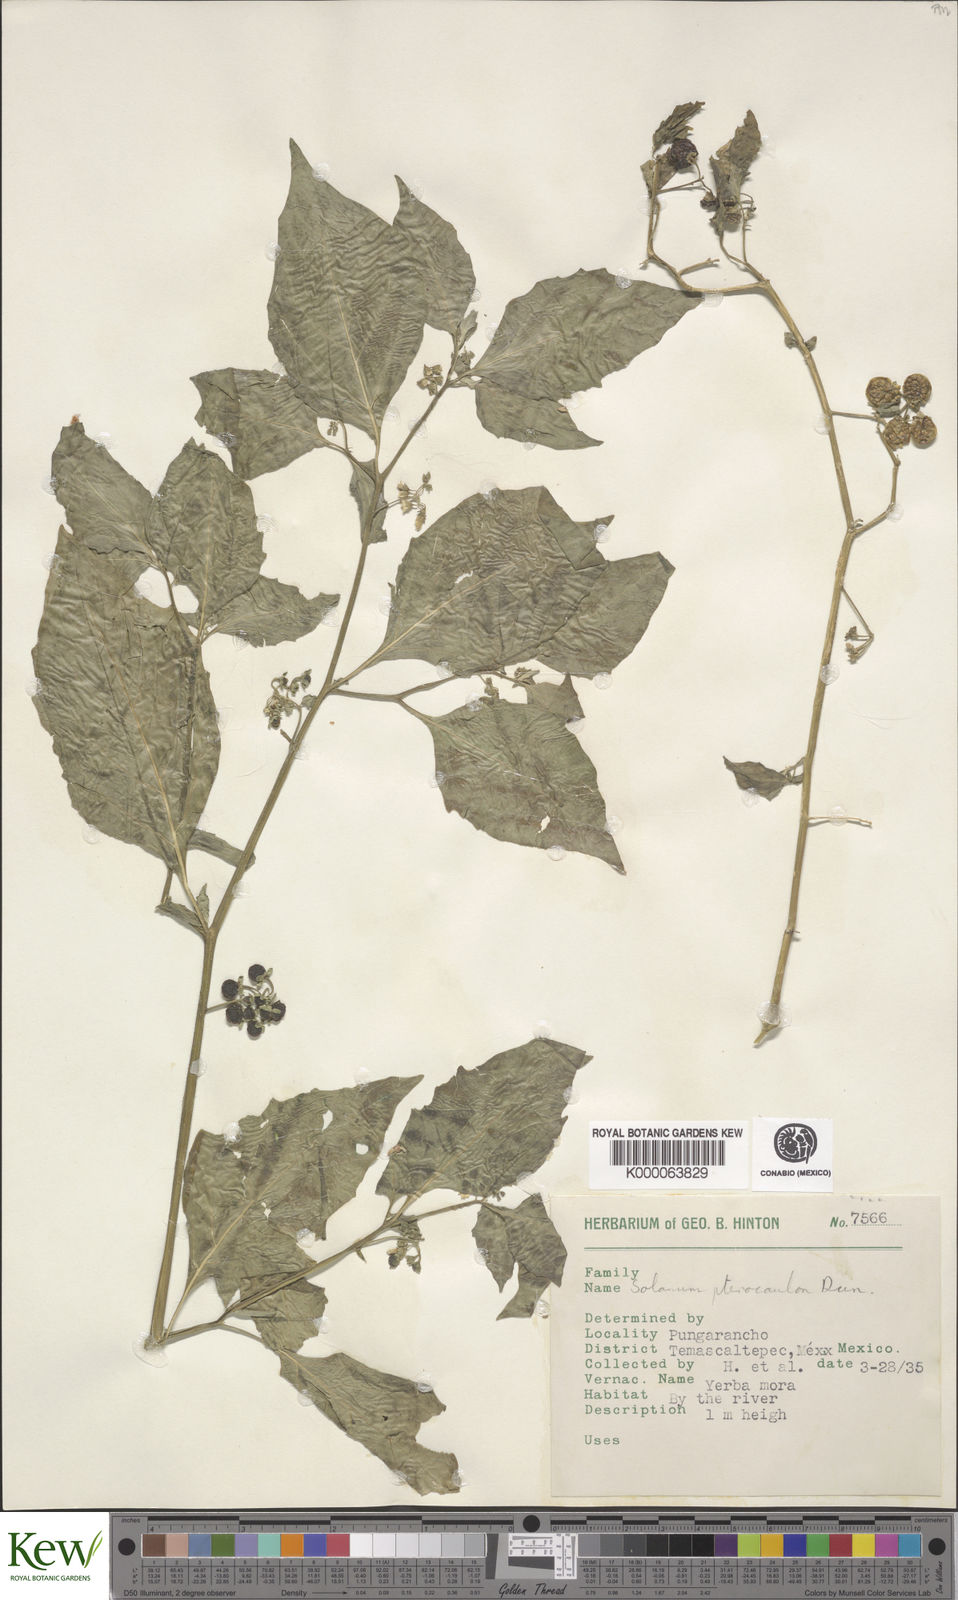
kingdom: Plantae
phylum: Tracheophyta
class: Magnoliopsida
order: Solanales
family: Solanaceae
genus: Solanum
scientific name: Solanum
